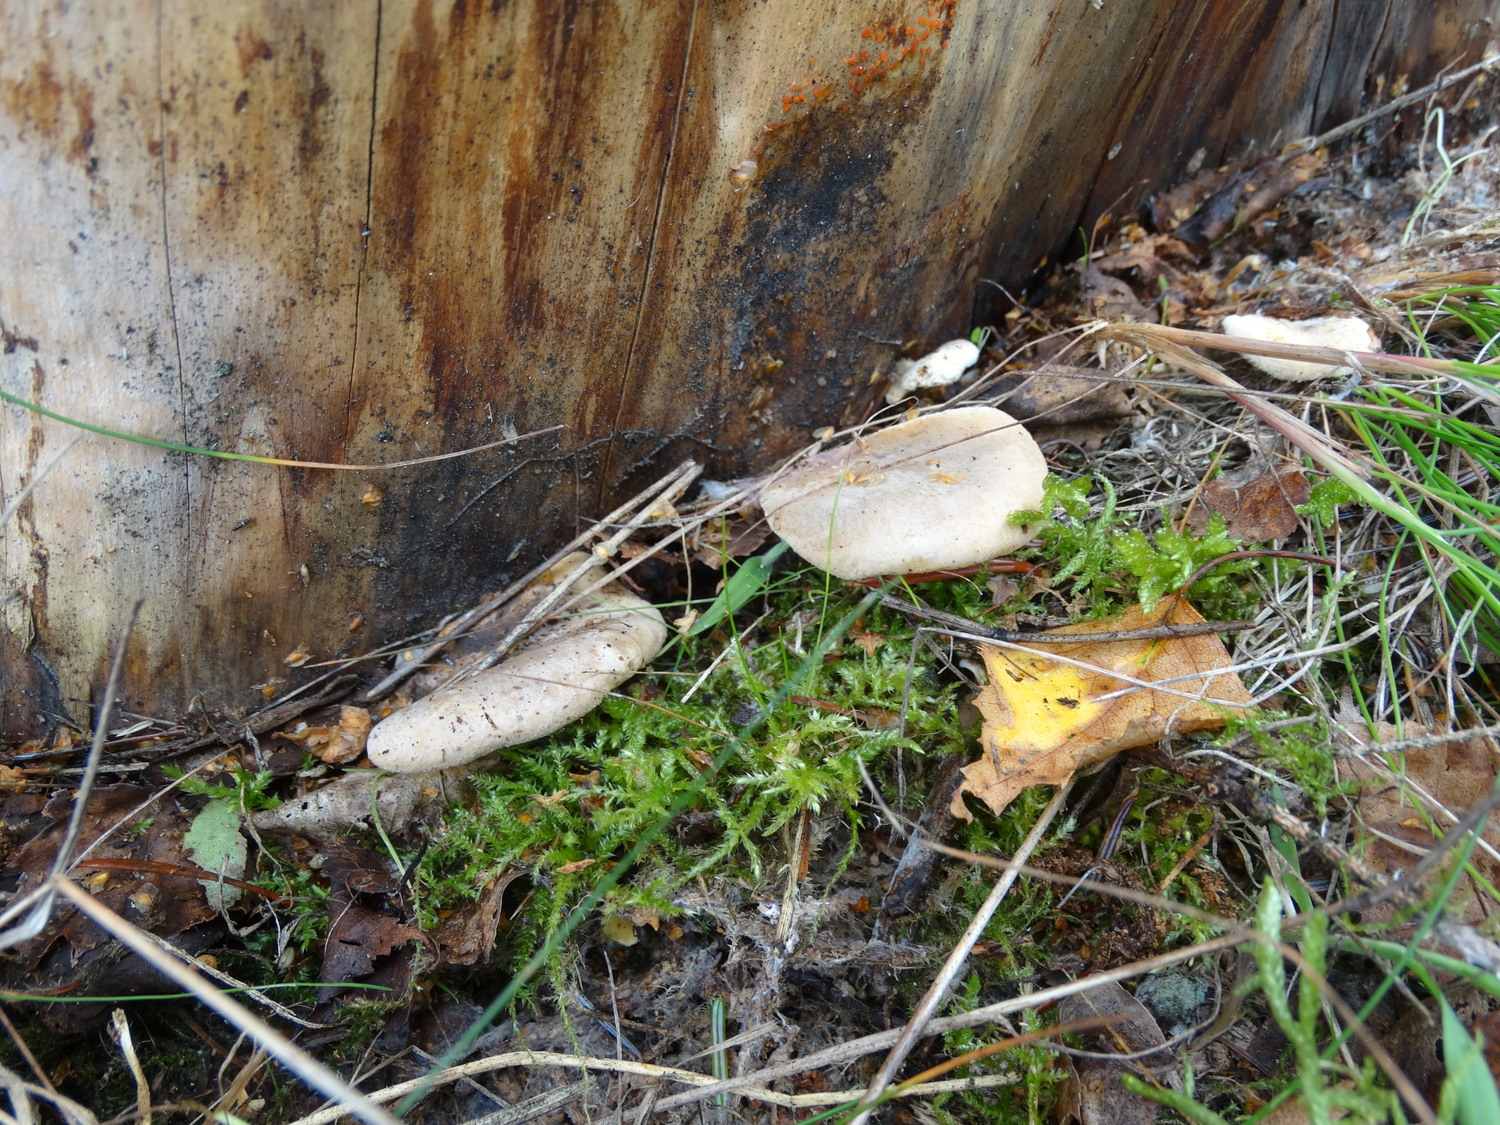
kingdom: Fungi
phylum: Basidiomycota
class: Agaricomycetes
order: Boletales
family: Tapinellaceae
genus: Tapinella
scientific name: Tapinella panuoides
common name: tømmer-viftesvamp
